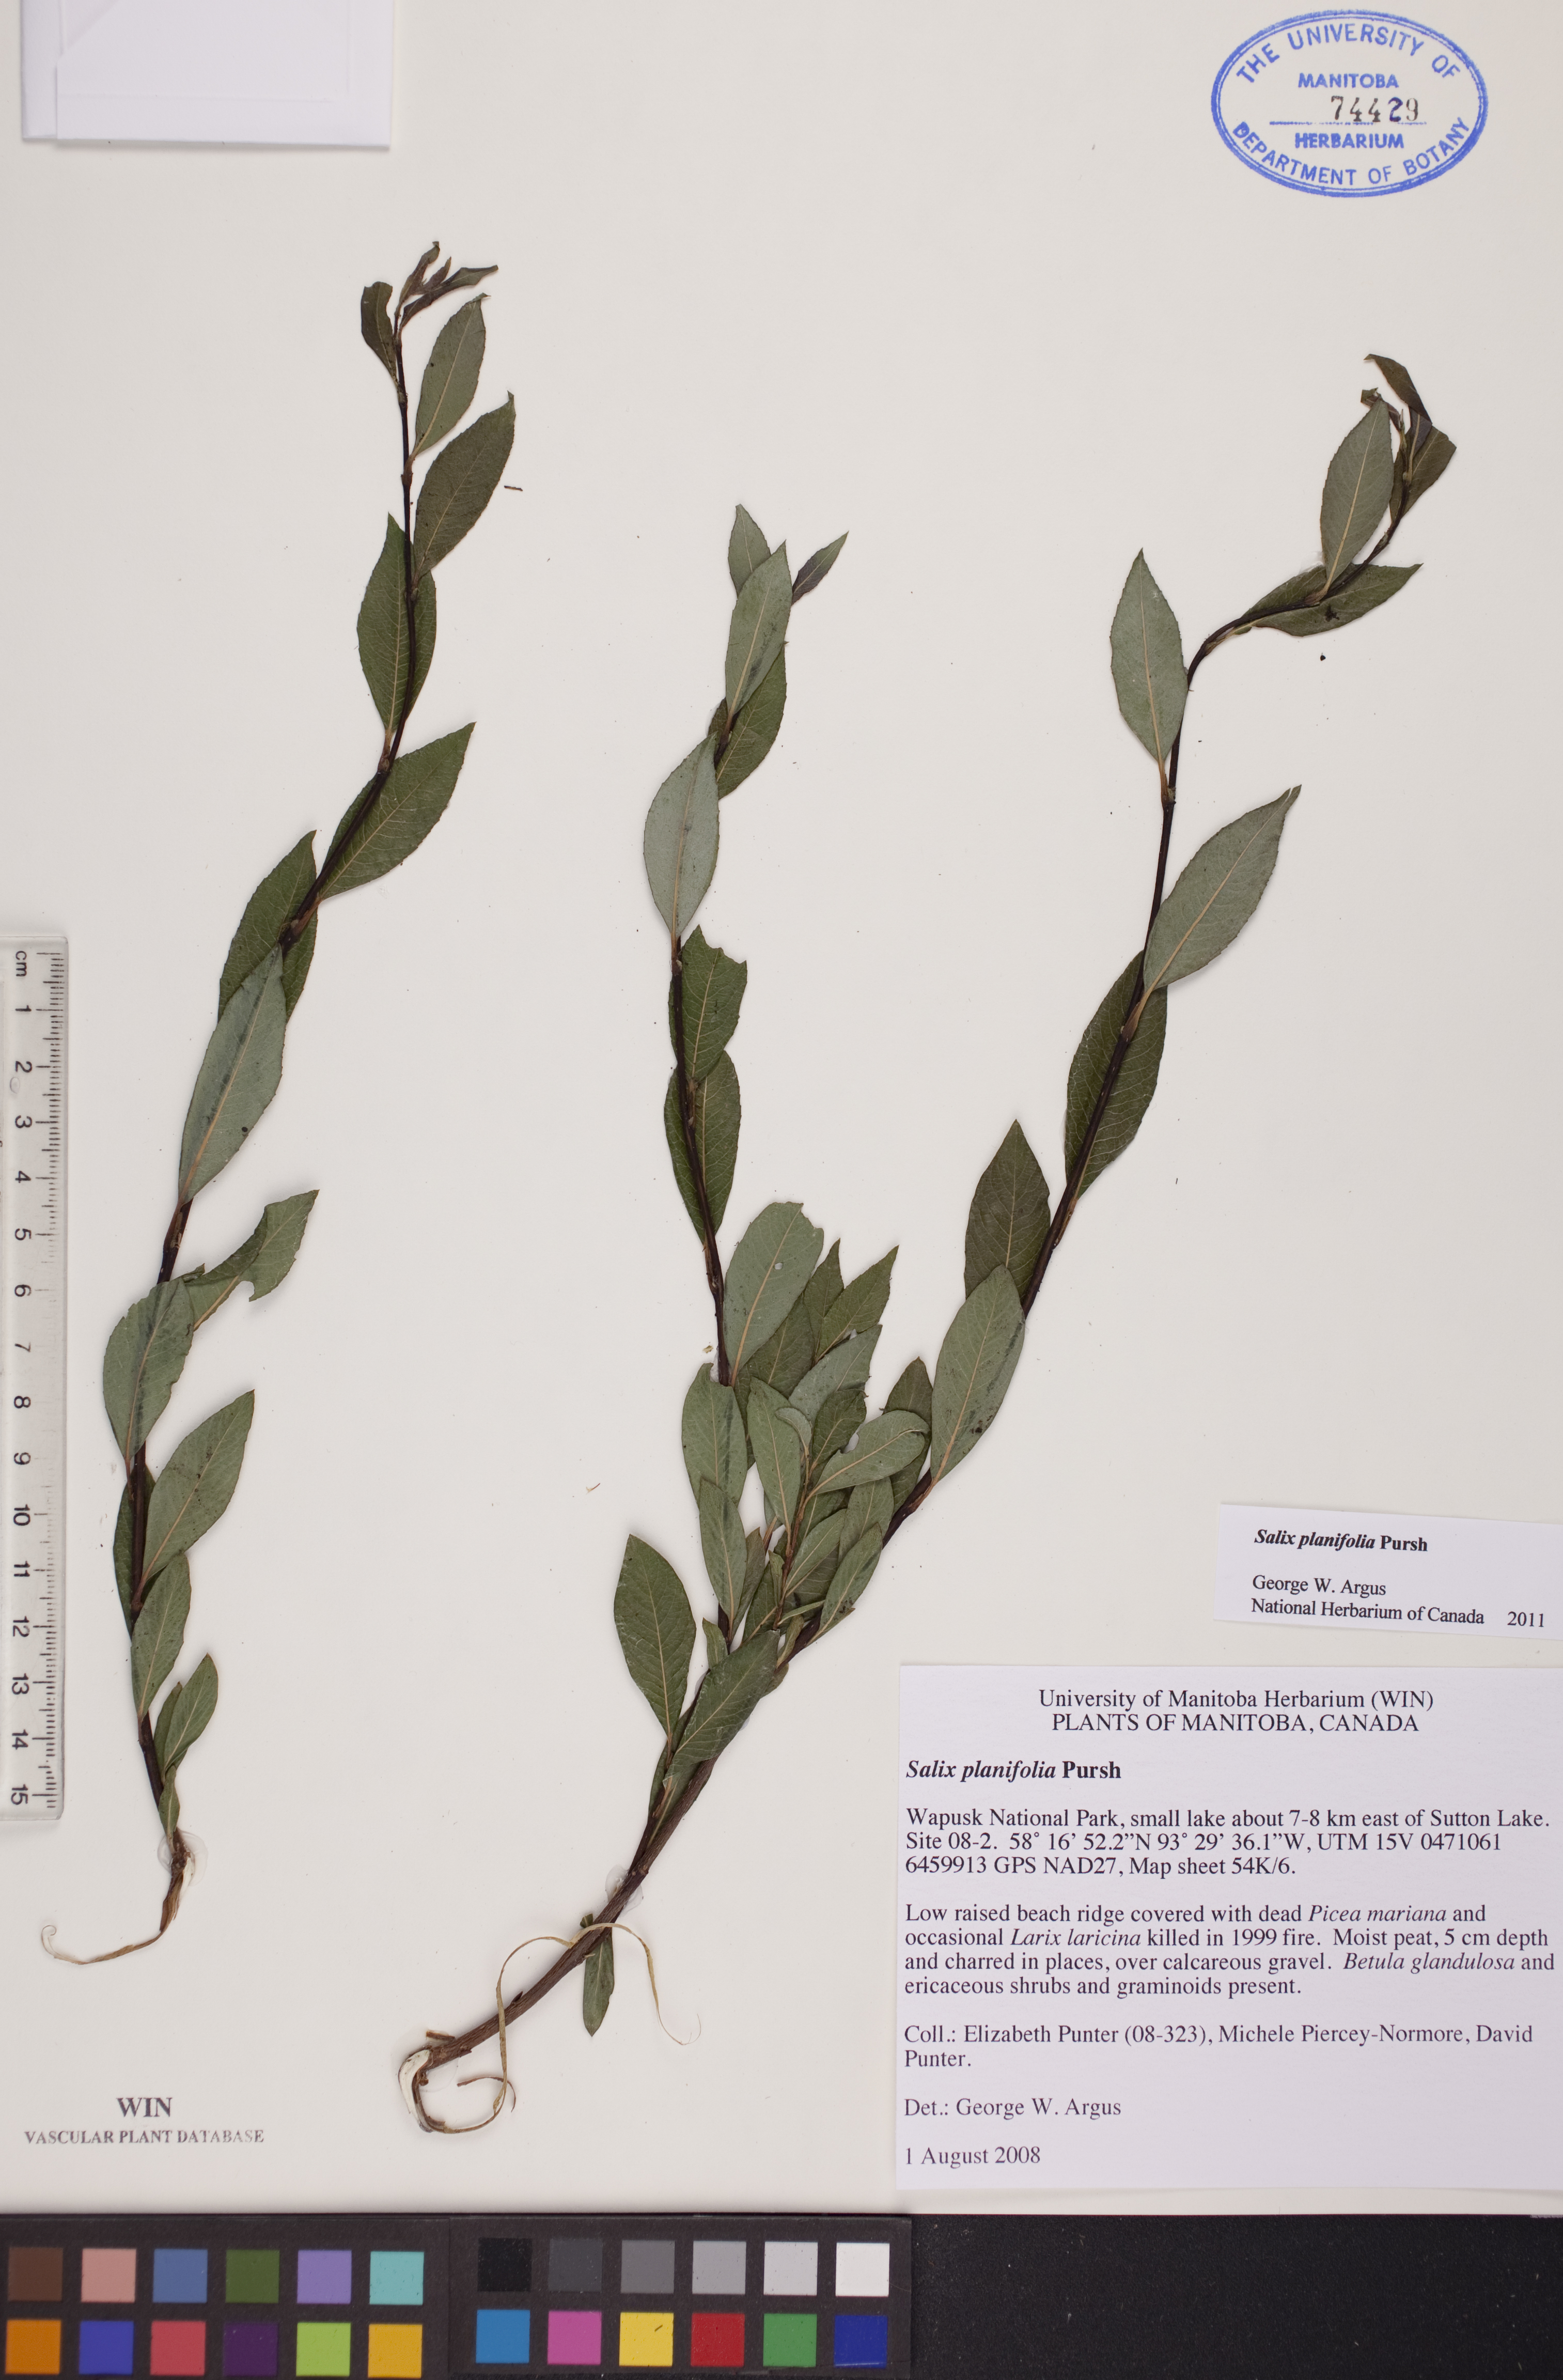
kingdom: Plantae
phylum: Tracheophyta
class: Magnoliopsida
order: Malpighiales
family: Salicaceae
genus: Salix
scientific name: Salix planifolia
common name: Mountain willow
